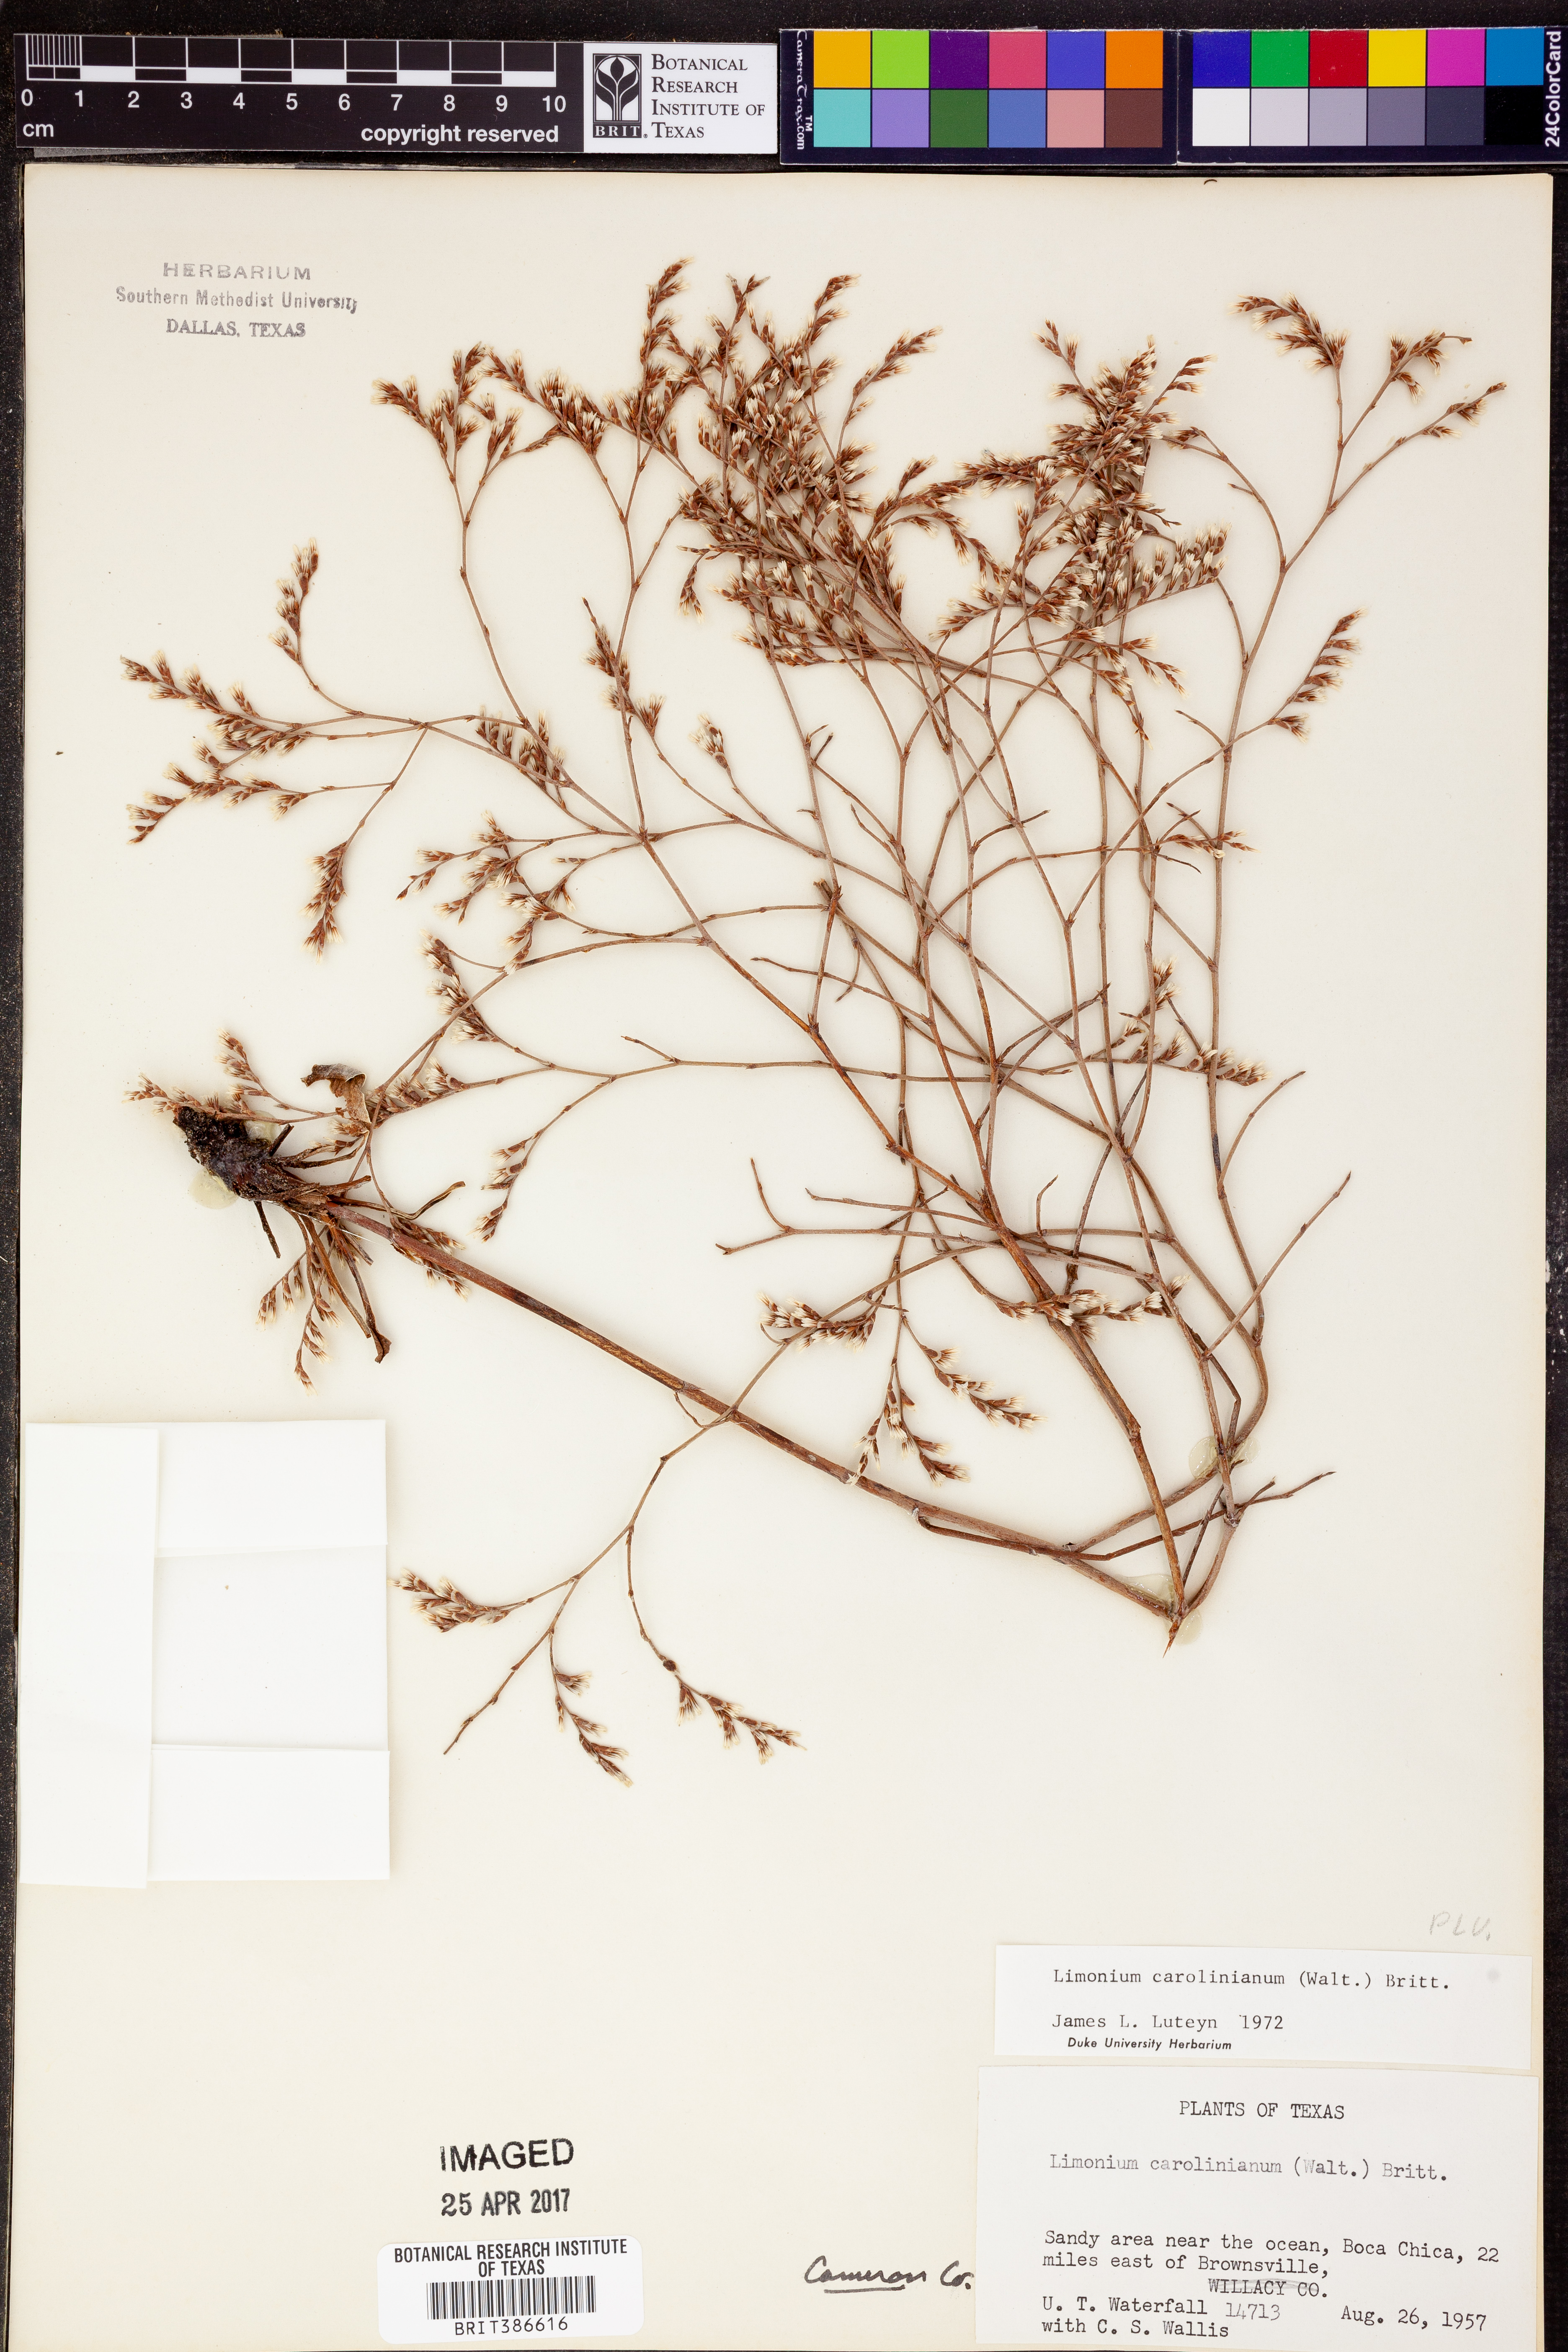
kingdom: Plantae
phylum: Tracheophyta
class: Magnoliopsida
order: Caryophyllales
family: Plumbaginaceae
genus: Limonium
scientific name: Limonium carolinianum
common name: Carolina sea lavender
